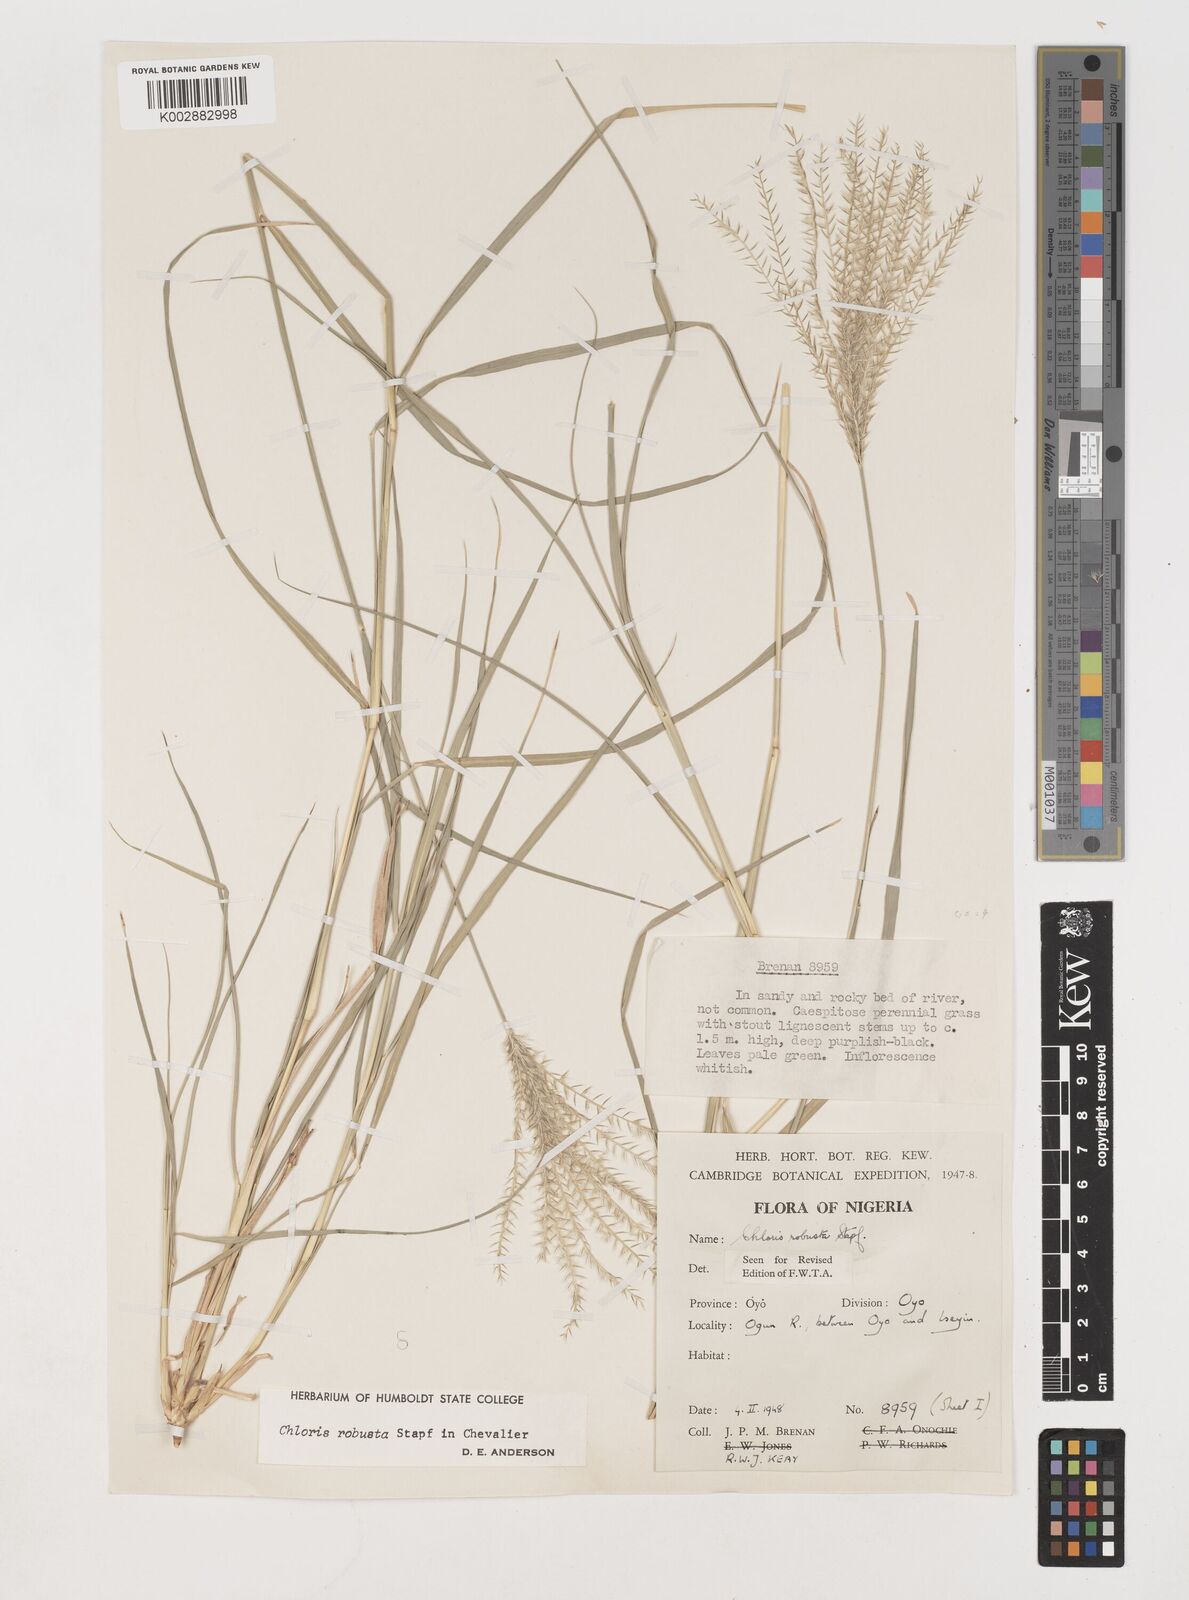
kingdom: Plantae
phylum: Tracheophyta
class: Liliopsida
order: Poales
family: Poaceae
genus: Chloris
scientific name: Chloris robusta
